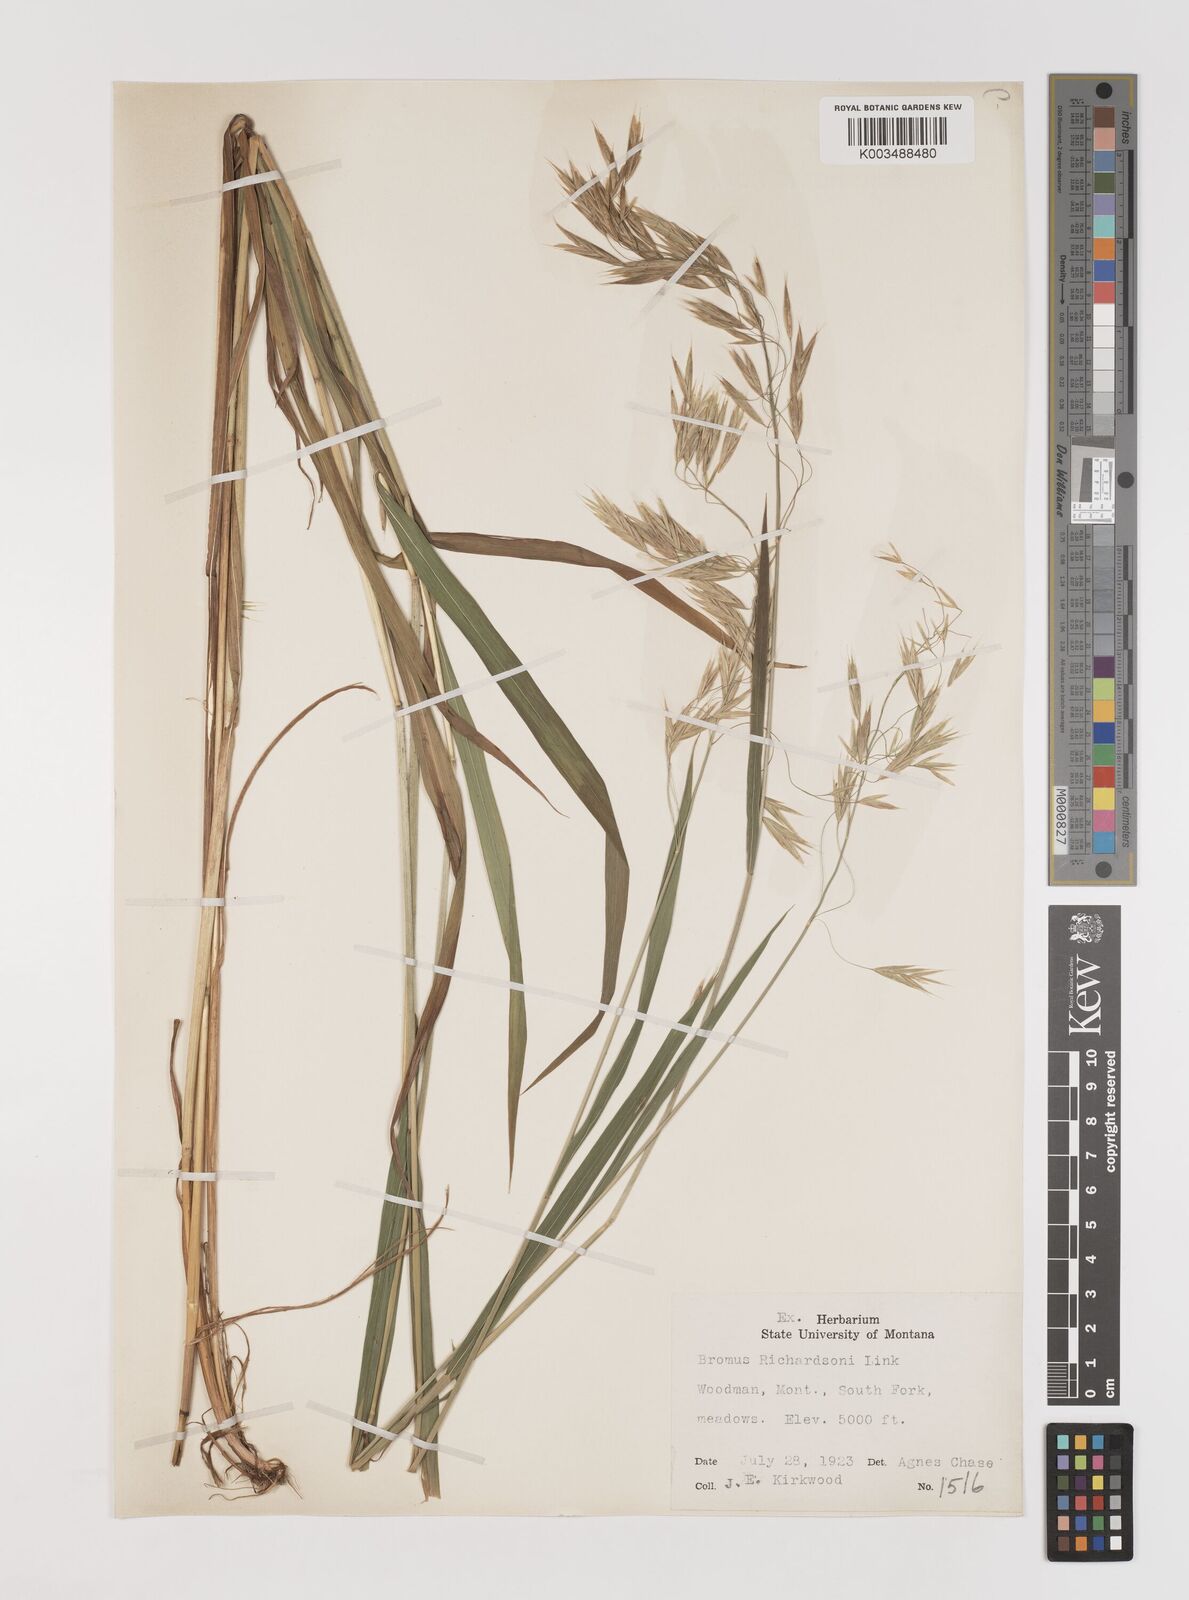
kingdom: Plantae
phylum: Tracheophyta
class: Liliopsida
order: Poales
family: Poaceae
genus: Bromus
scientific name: Bromus richardsonii
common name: Richardson's brome
